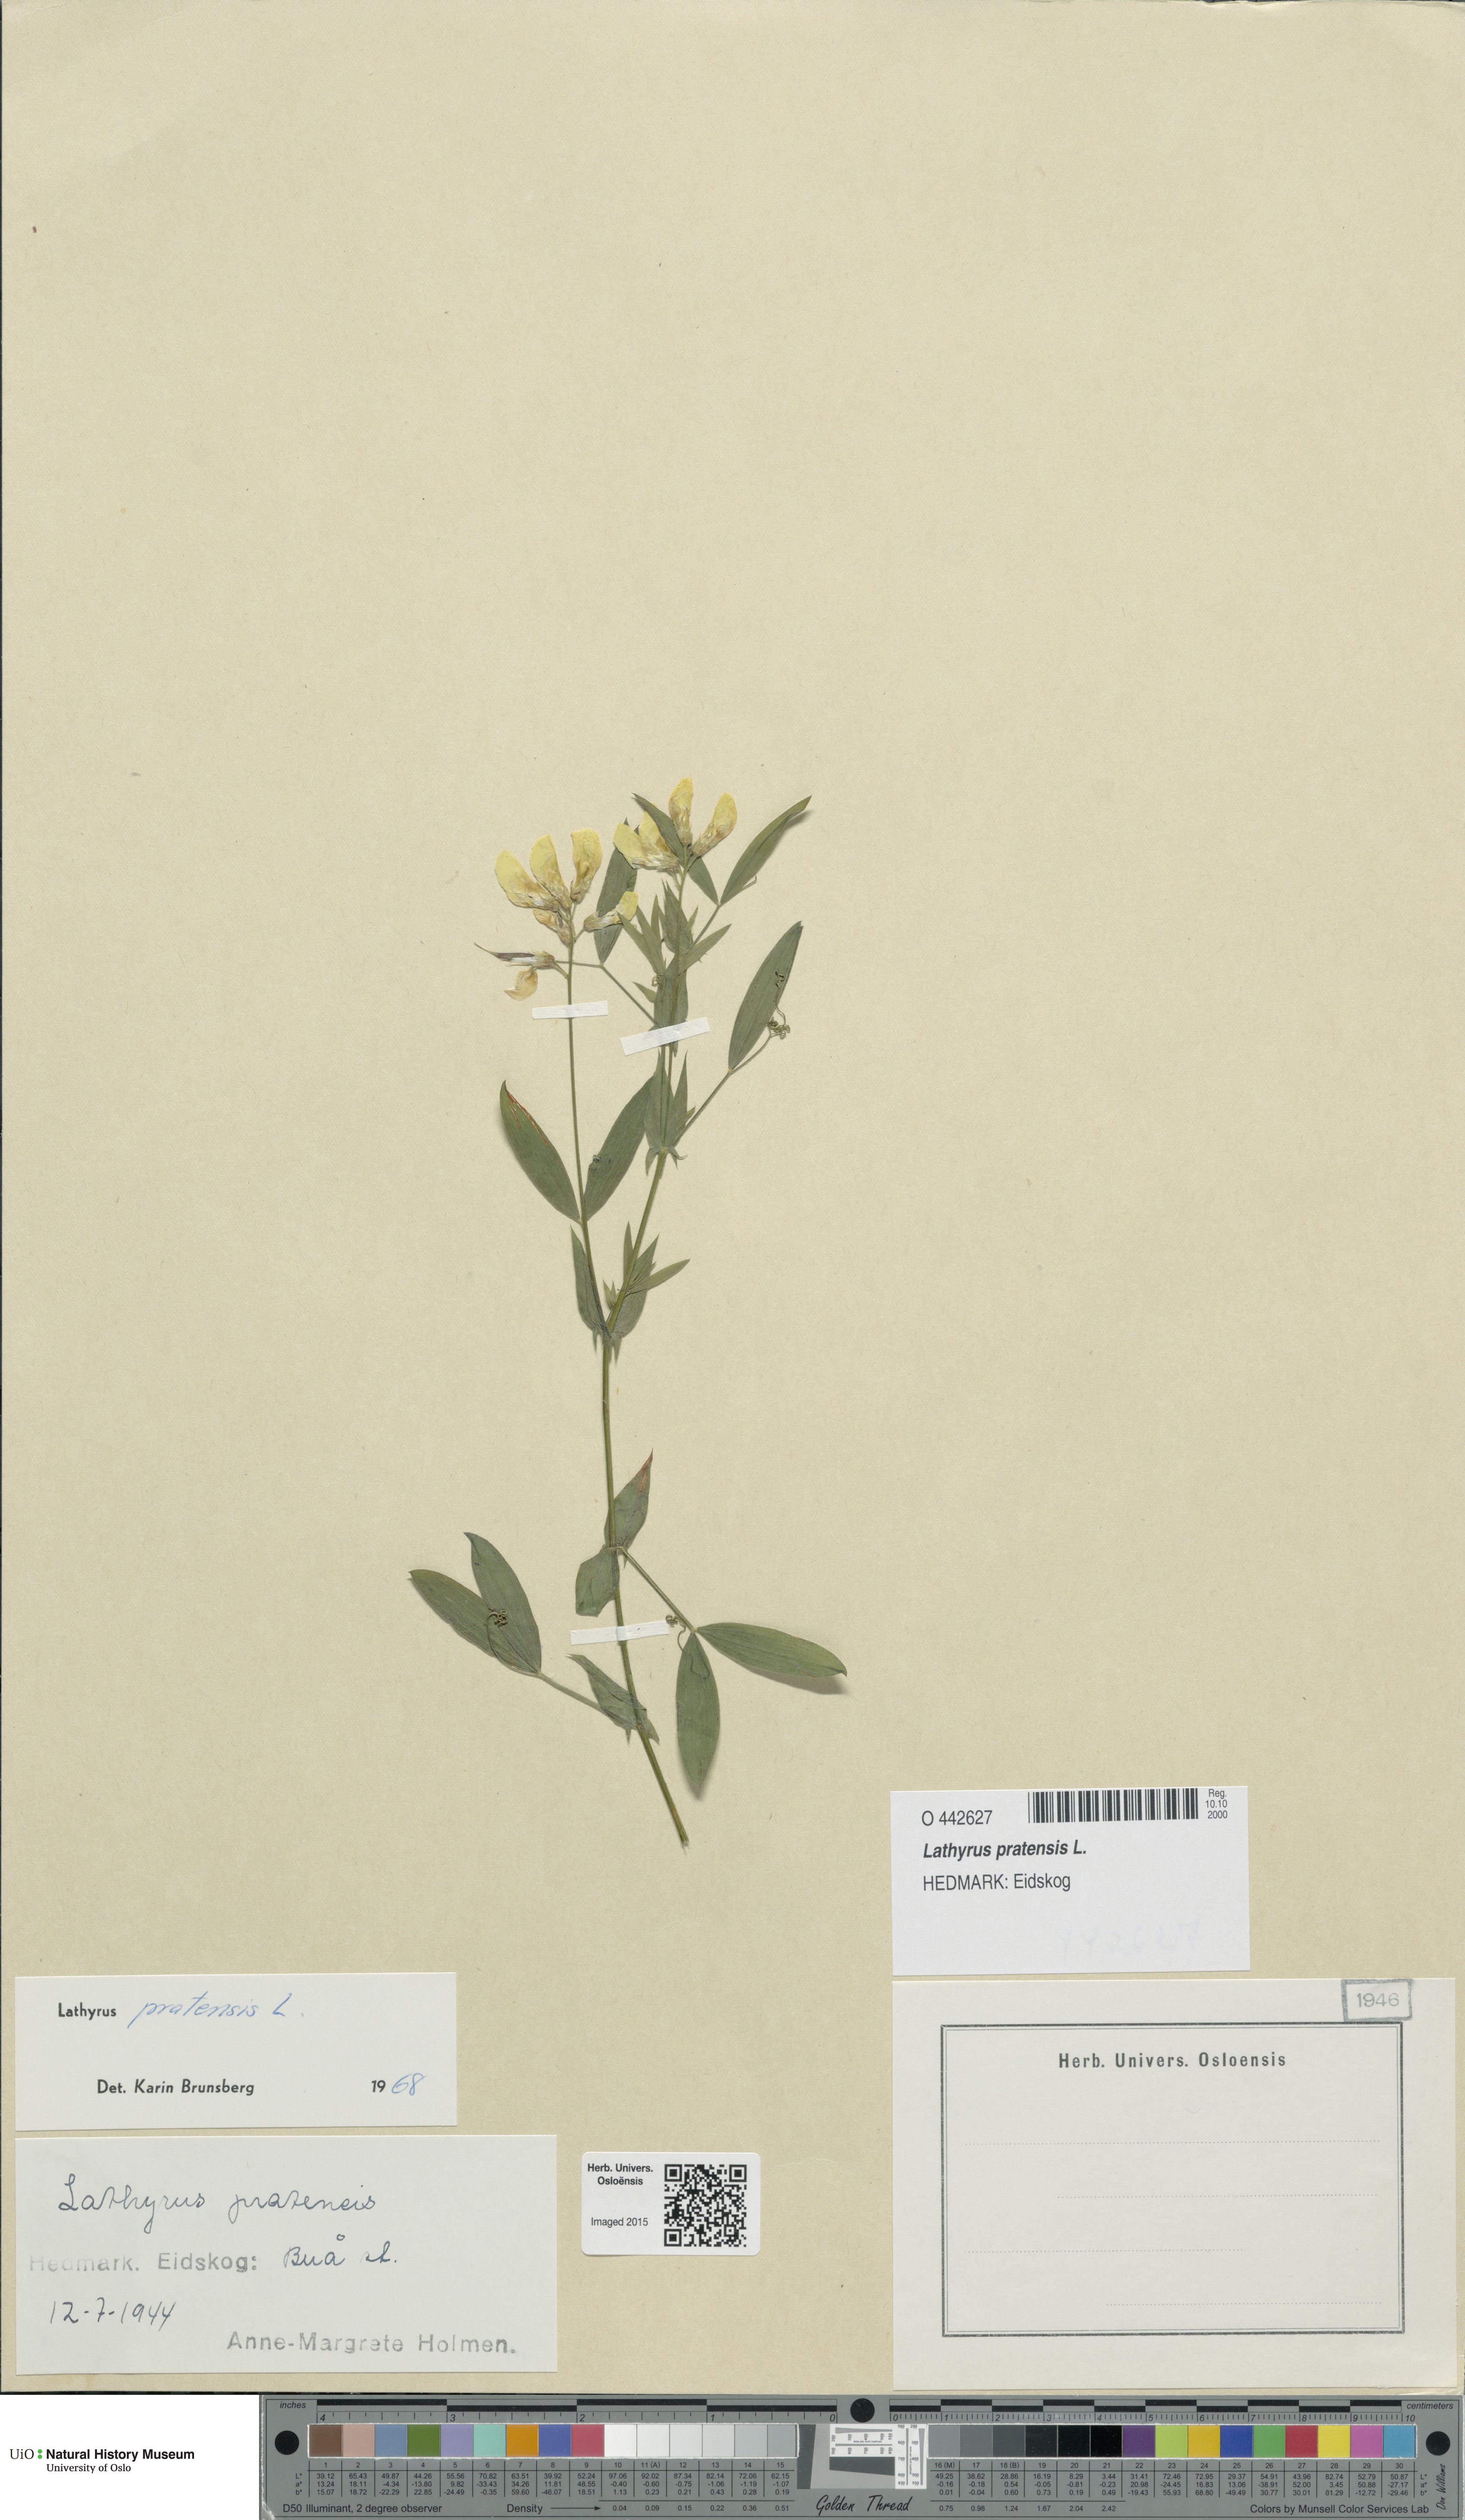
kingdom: Plantae
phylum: Tracheophyta
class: Magnoliopsida
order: Fabales
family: Fabaceae
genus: Lathyrus
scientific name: Lathyrus pratensis
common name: Meadow vetchling
